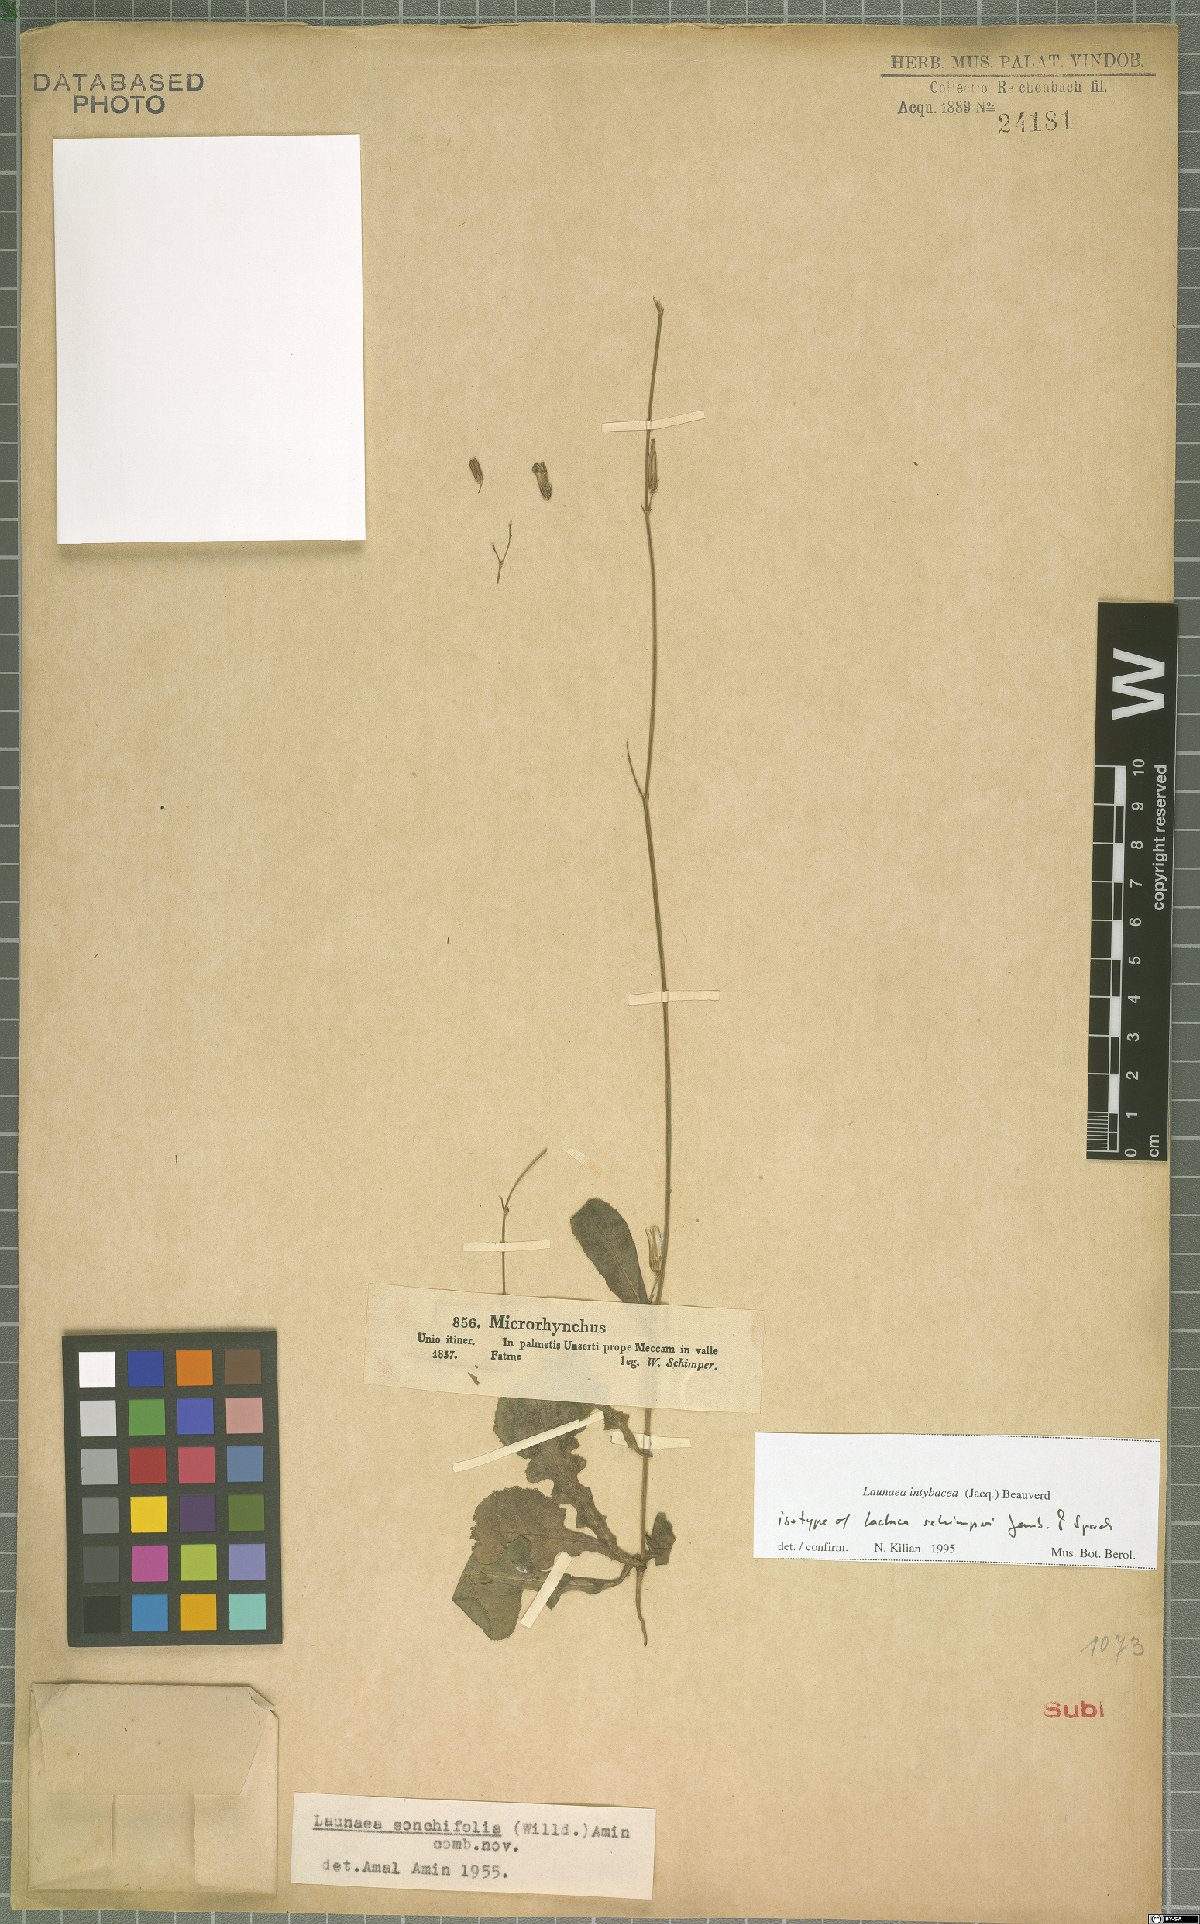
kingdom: Plantae
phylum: Tracheophyta
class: Magnoliopsida
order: Asterales
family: Asteraceae
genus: Launaea
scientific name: Launaea intybacea
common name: Achicoria azul
